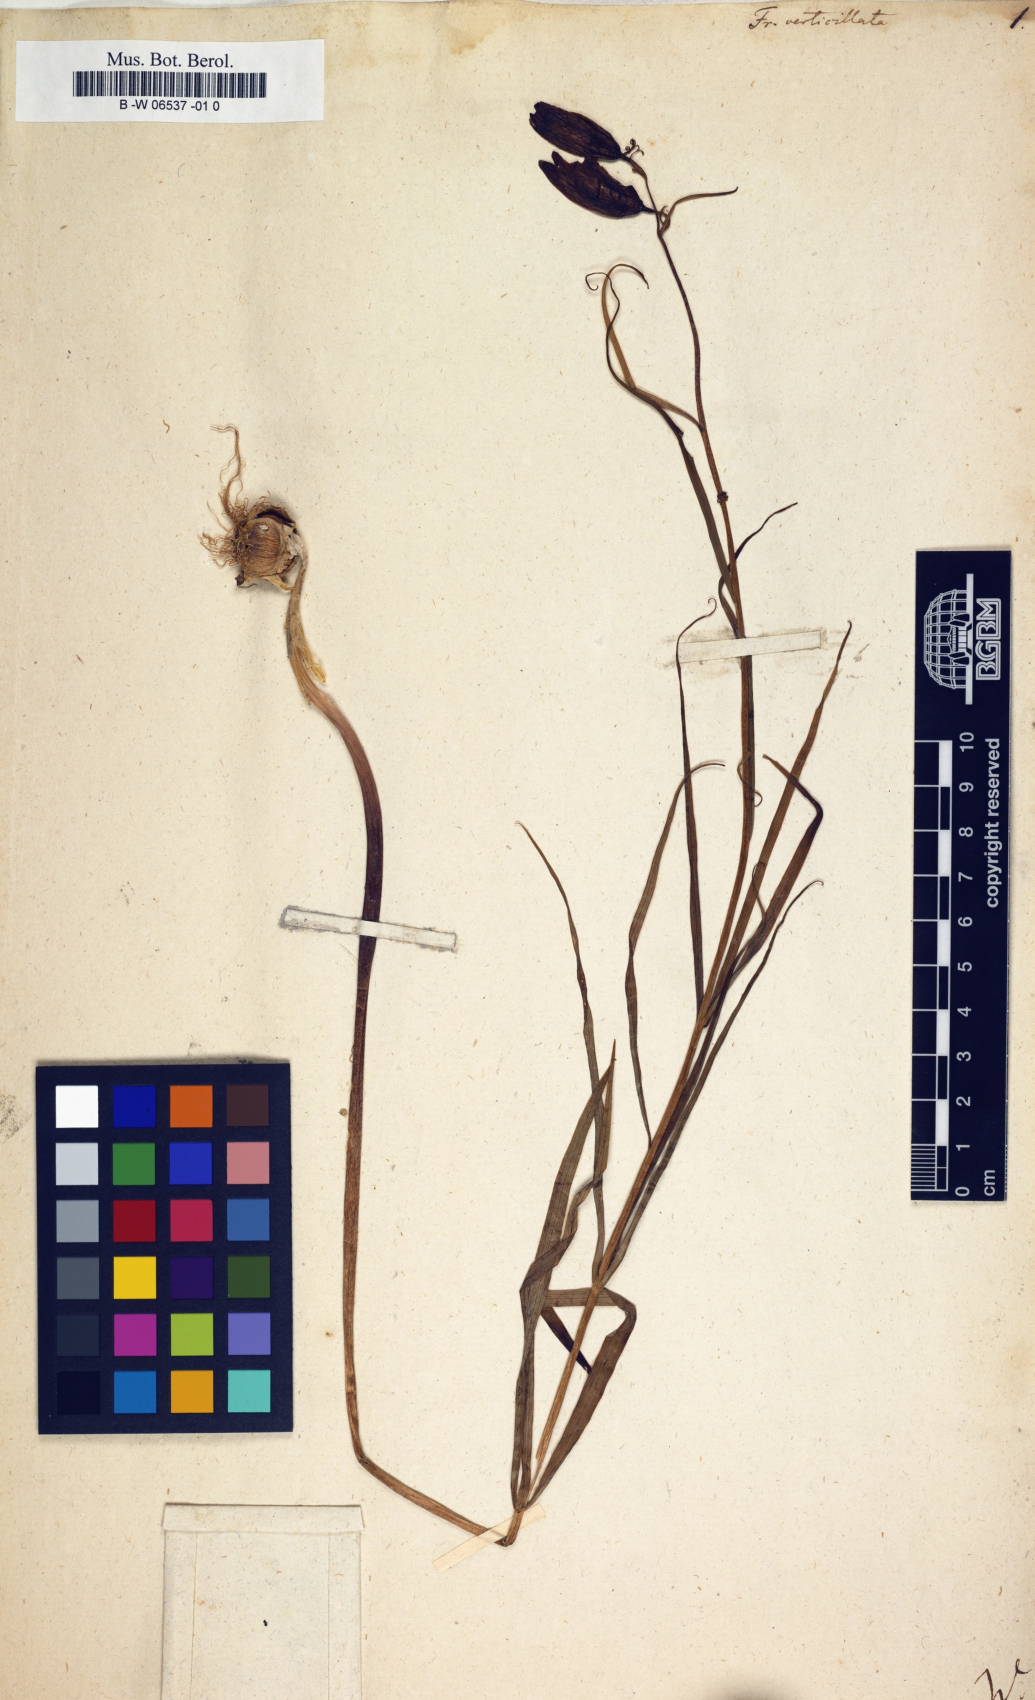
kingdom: Plantae
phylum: Tracheophyta
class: Liliopsida
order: Liliales
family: Liliaceae
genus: Fritillaria
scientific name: Fritillaria verticillata
